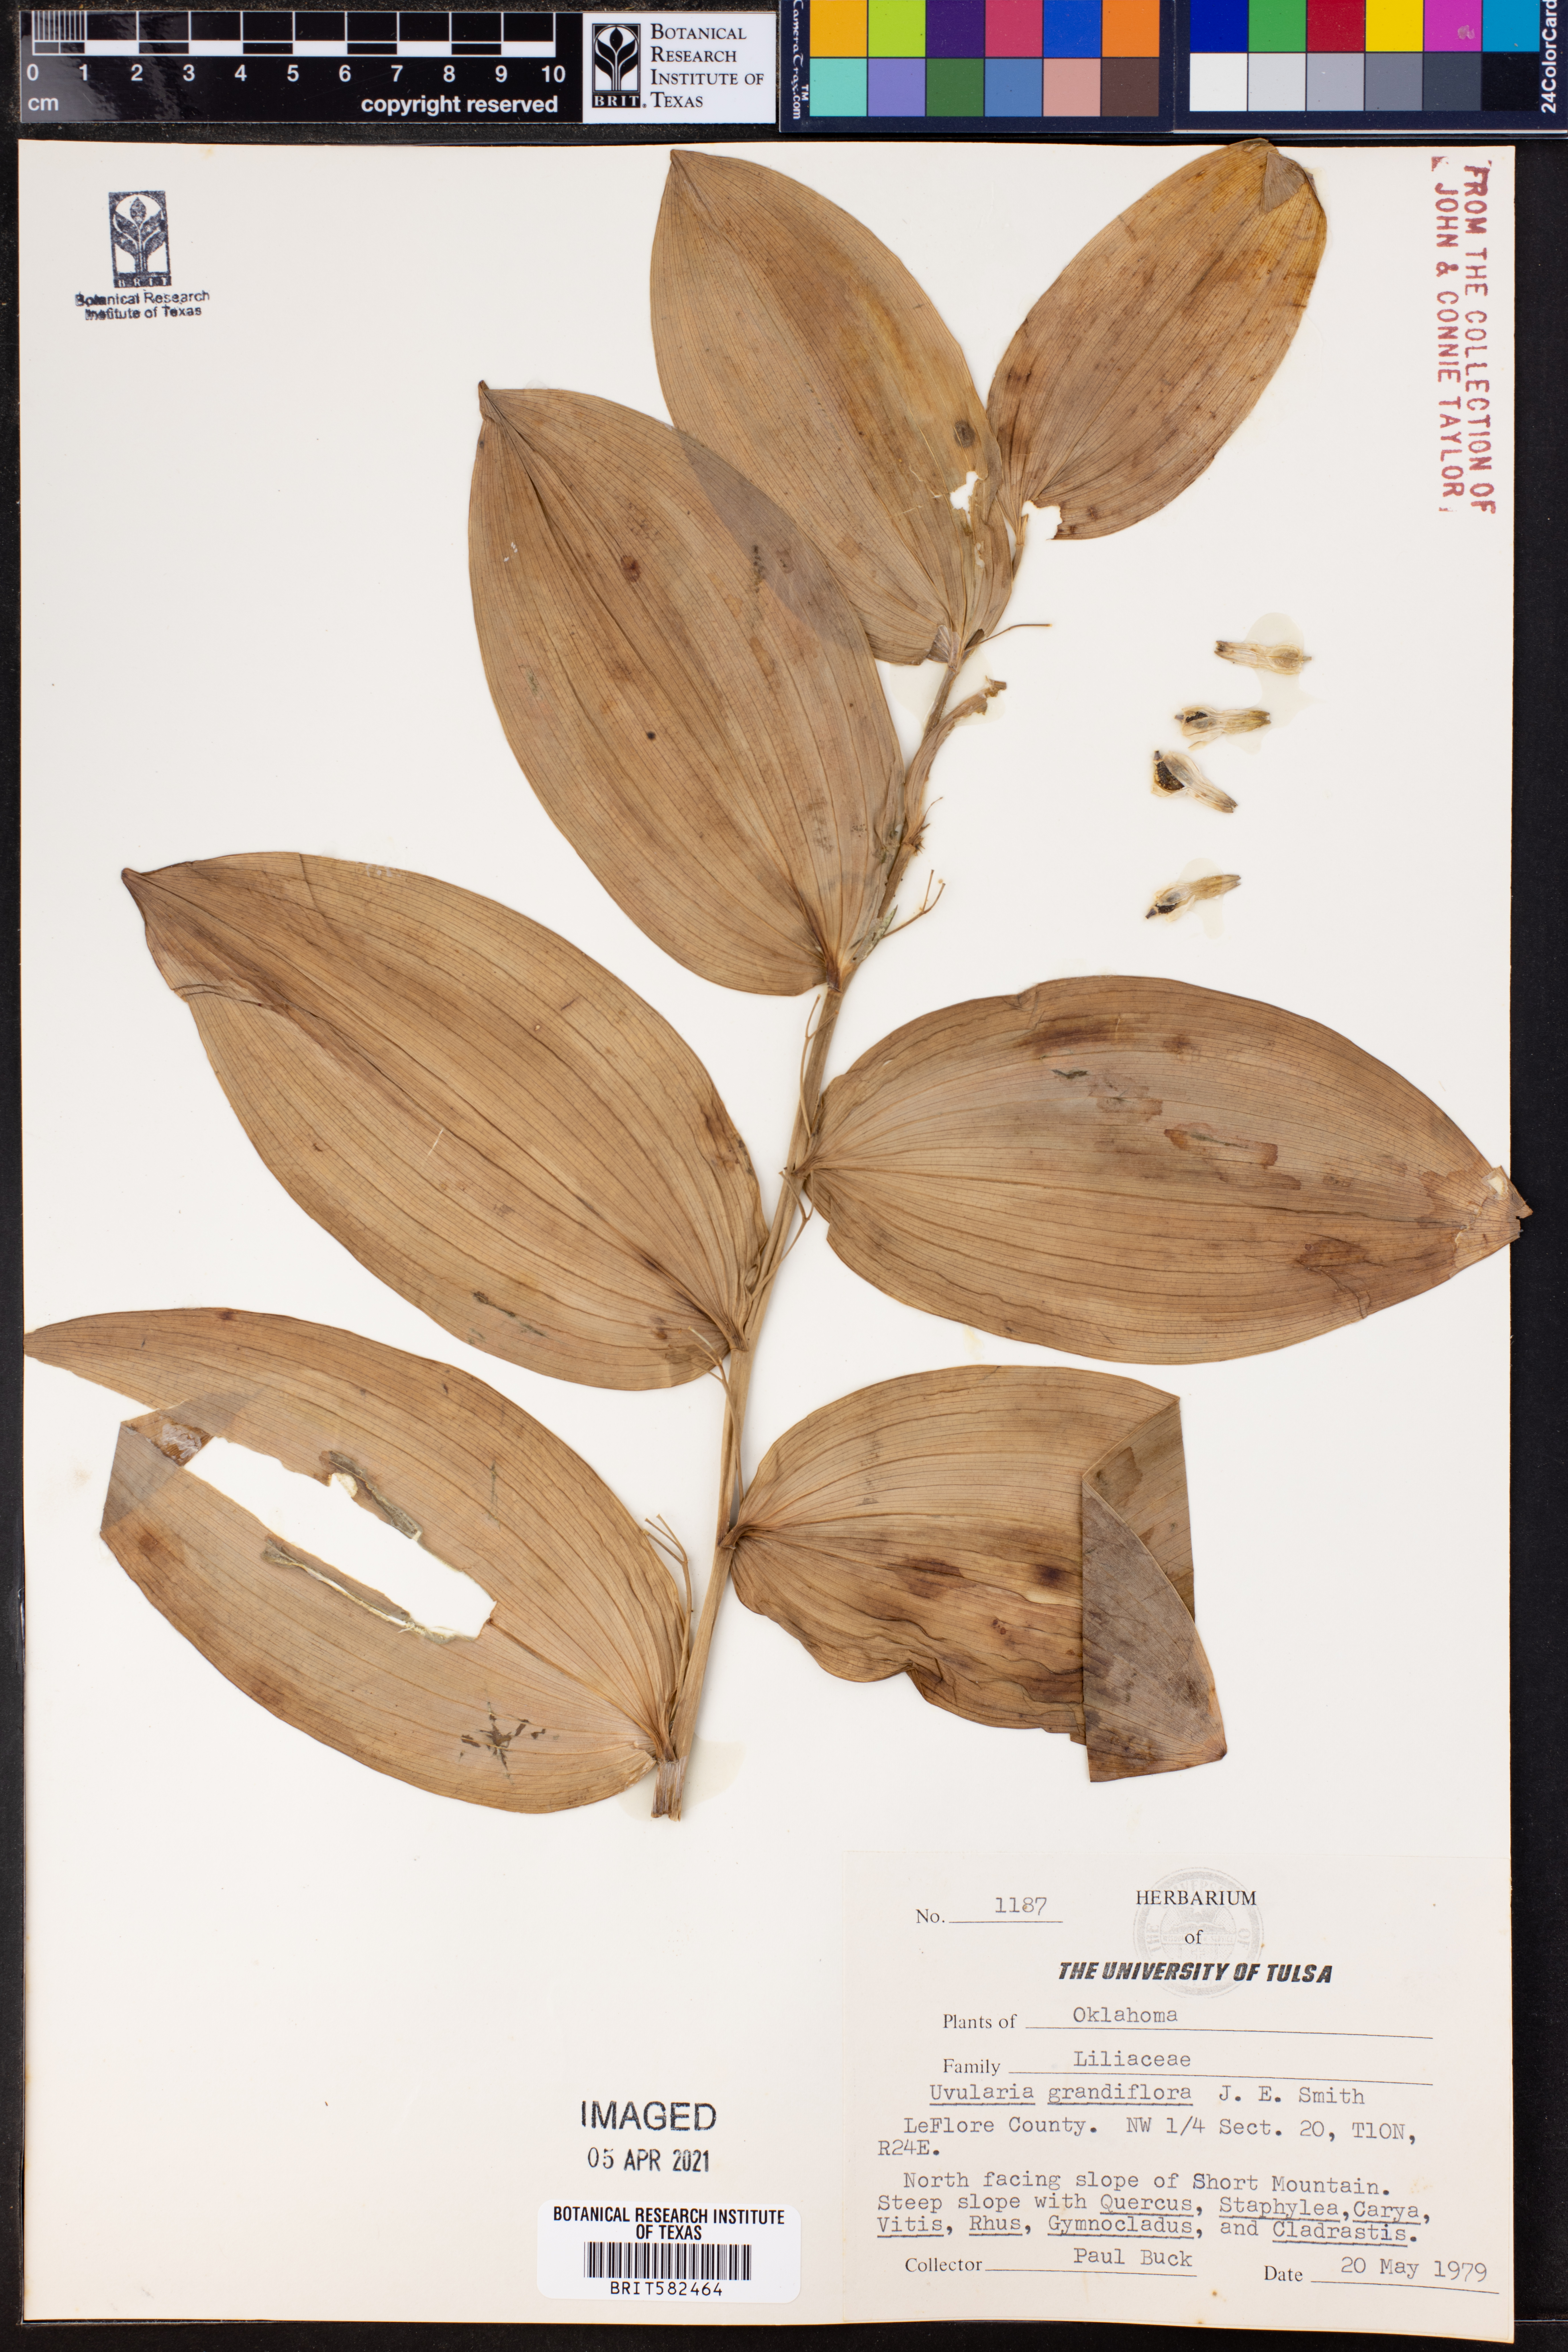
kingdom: Plantae
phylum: Tracheophyta
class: Liliopsida
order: Liliales
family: Colchicaceae
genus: Uvularia
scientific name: Uvularia grandiflora
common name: Bellwort
